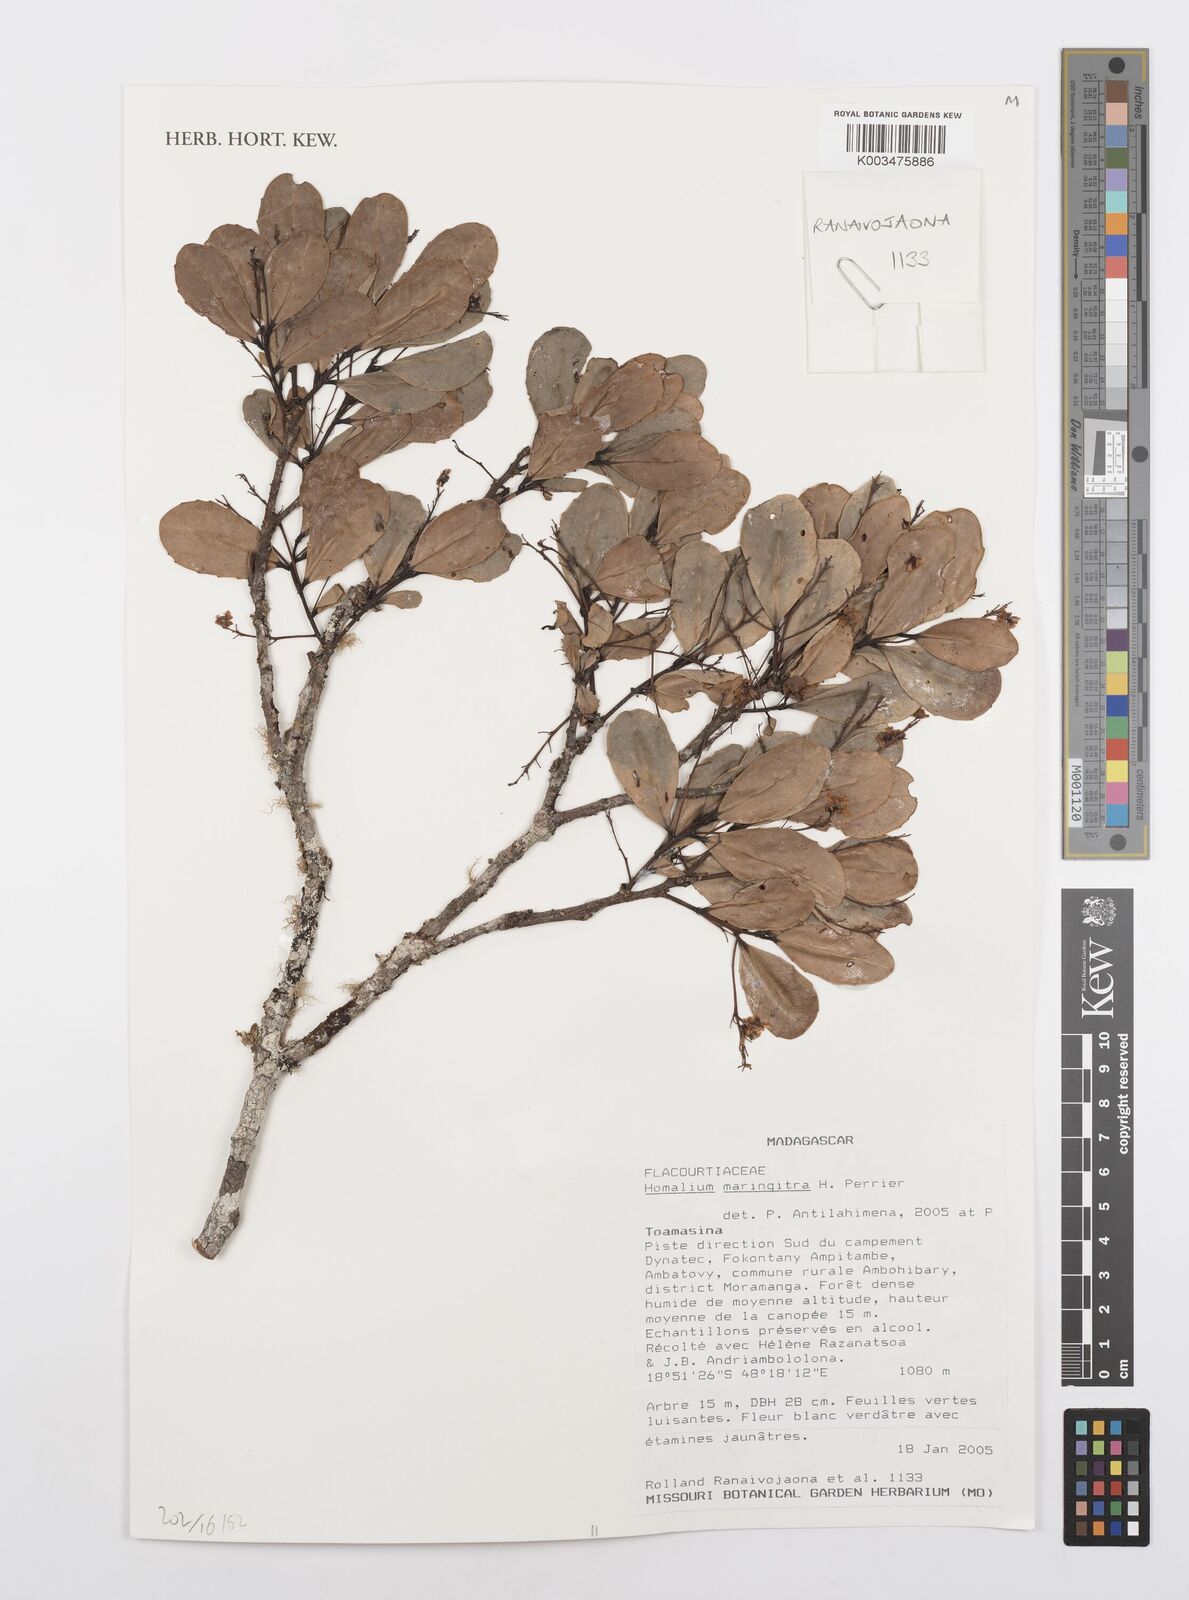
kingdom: Plantae
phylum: Tracheophyta
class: Magnoliopsida
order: Malpighiales
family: Salicaceae
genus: Homalium
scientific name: Homalium maringitra
